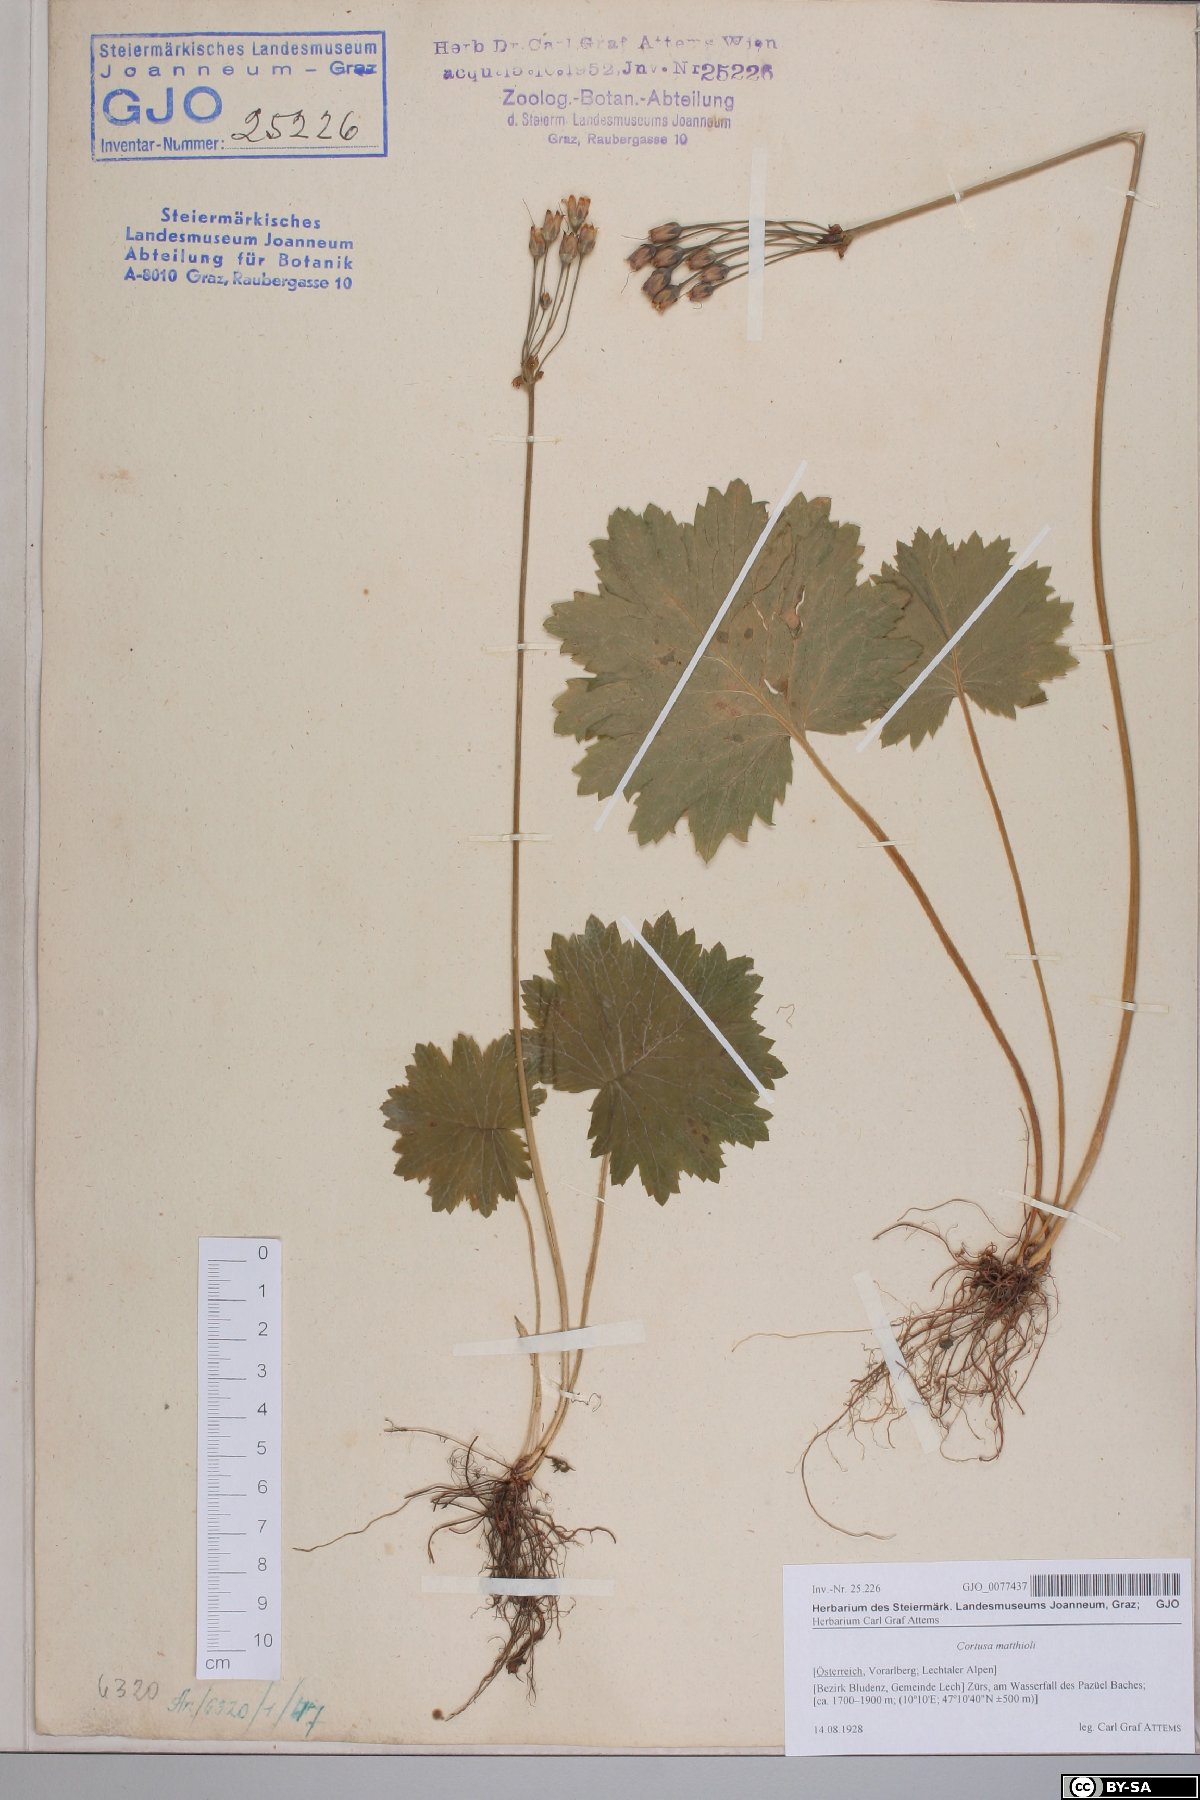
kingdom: Plantae
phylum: Tracheophyta
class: Magnoliopsida
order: Ericales
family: Primulaceae
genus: Primula
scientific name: Primula matthioli
